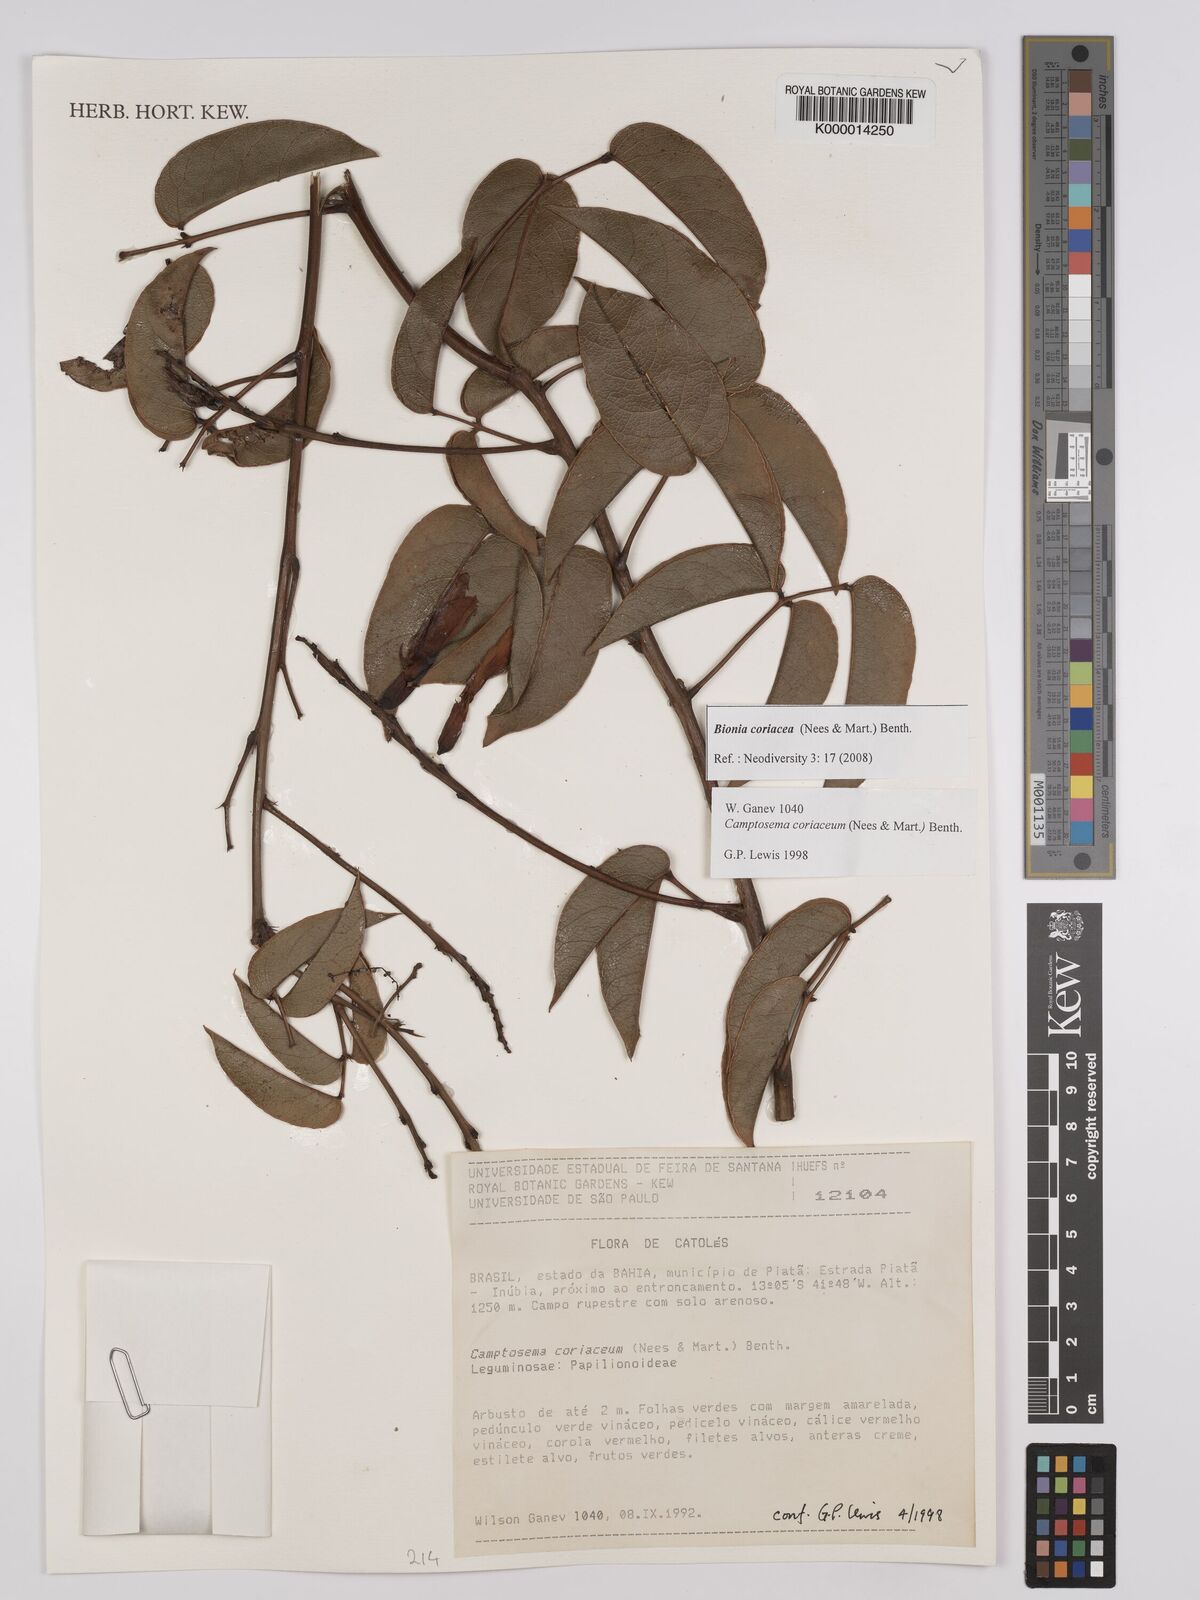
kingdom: Plantae
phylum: Tracheophyta
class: Magnoliopsida
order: Fabales
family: Fabaceae
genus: Camptosema
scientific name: Camptosema coriaceum
